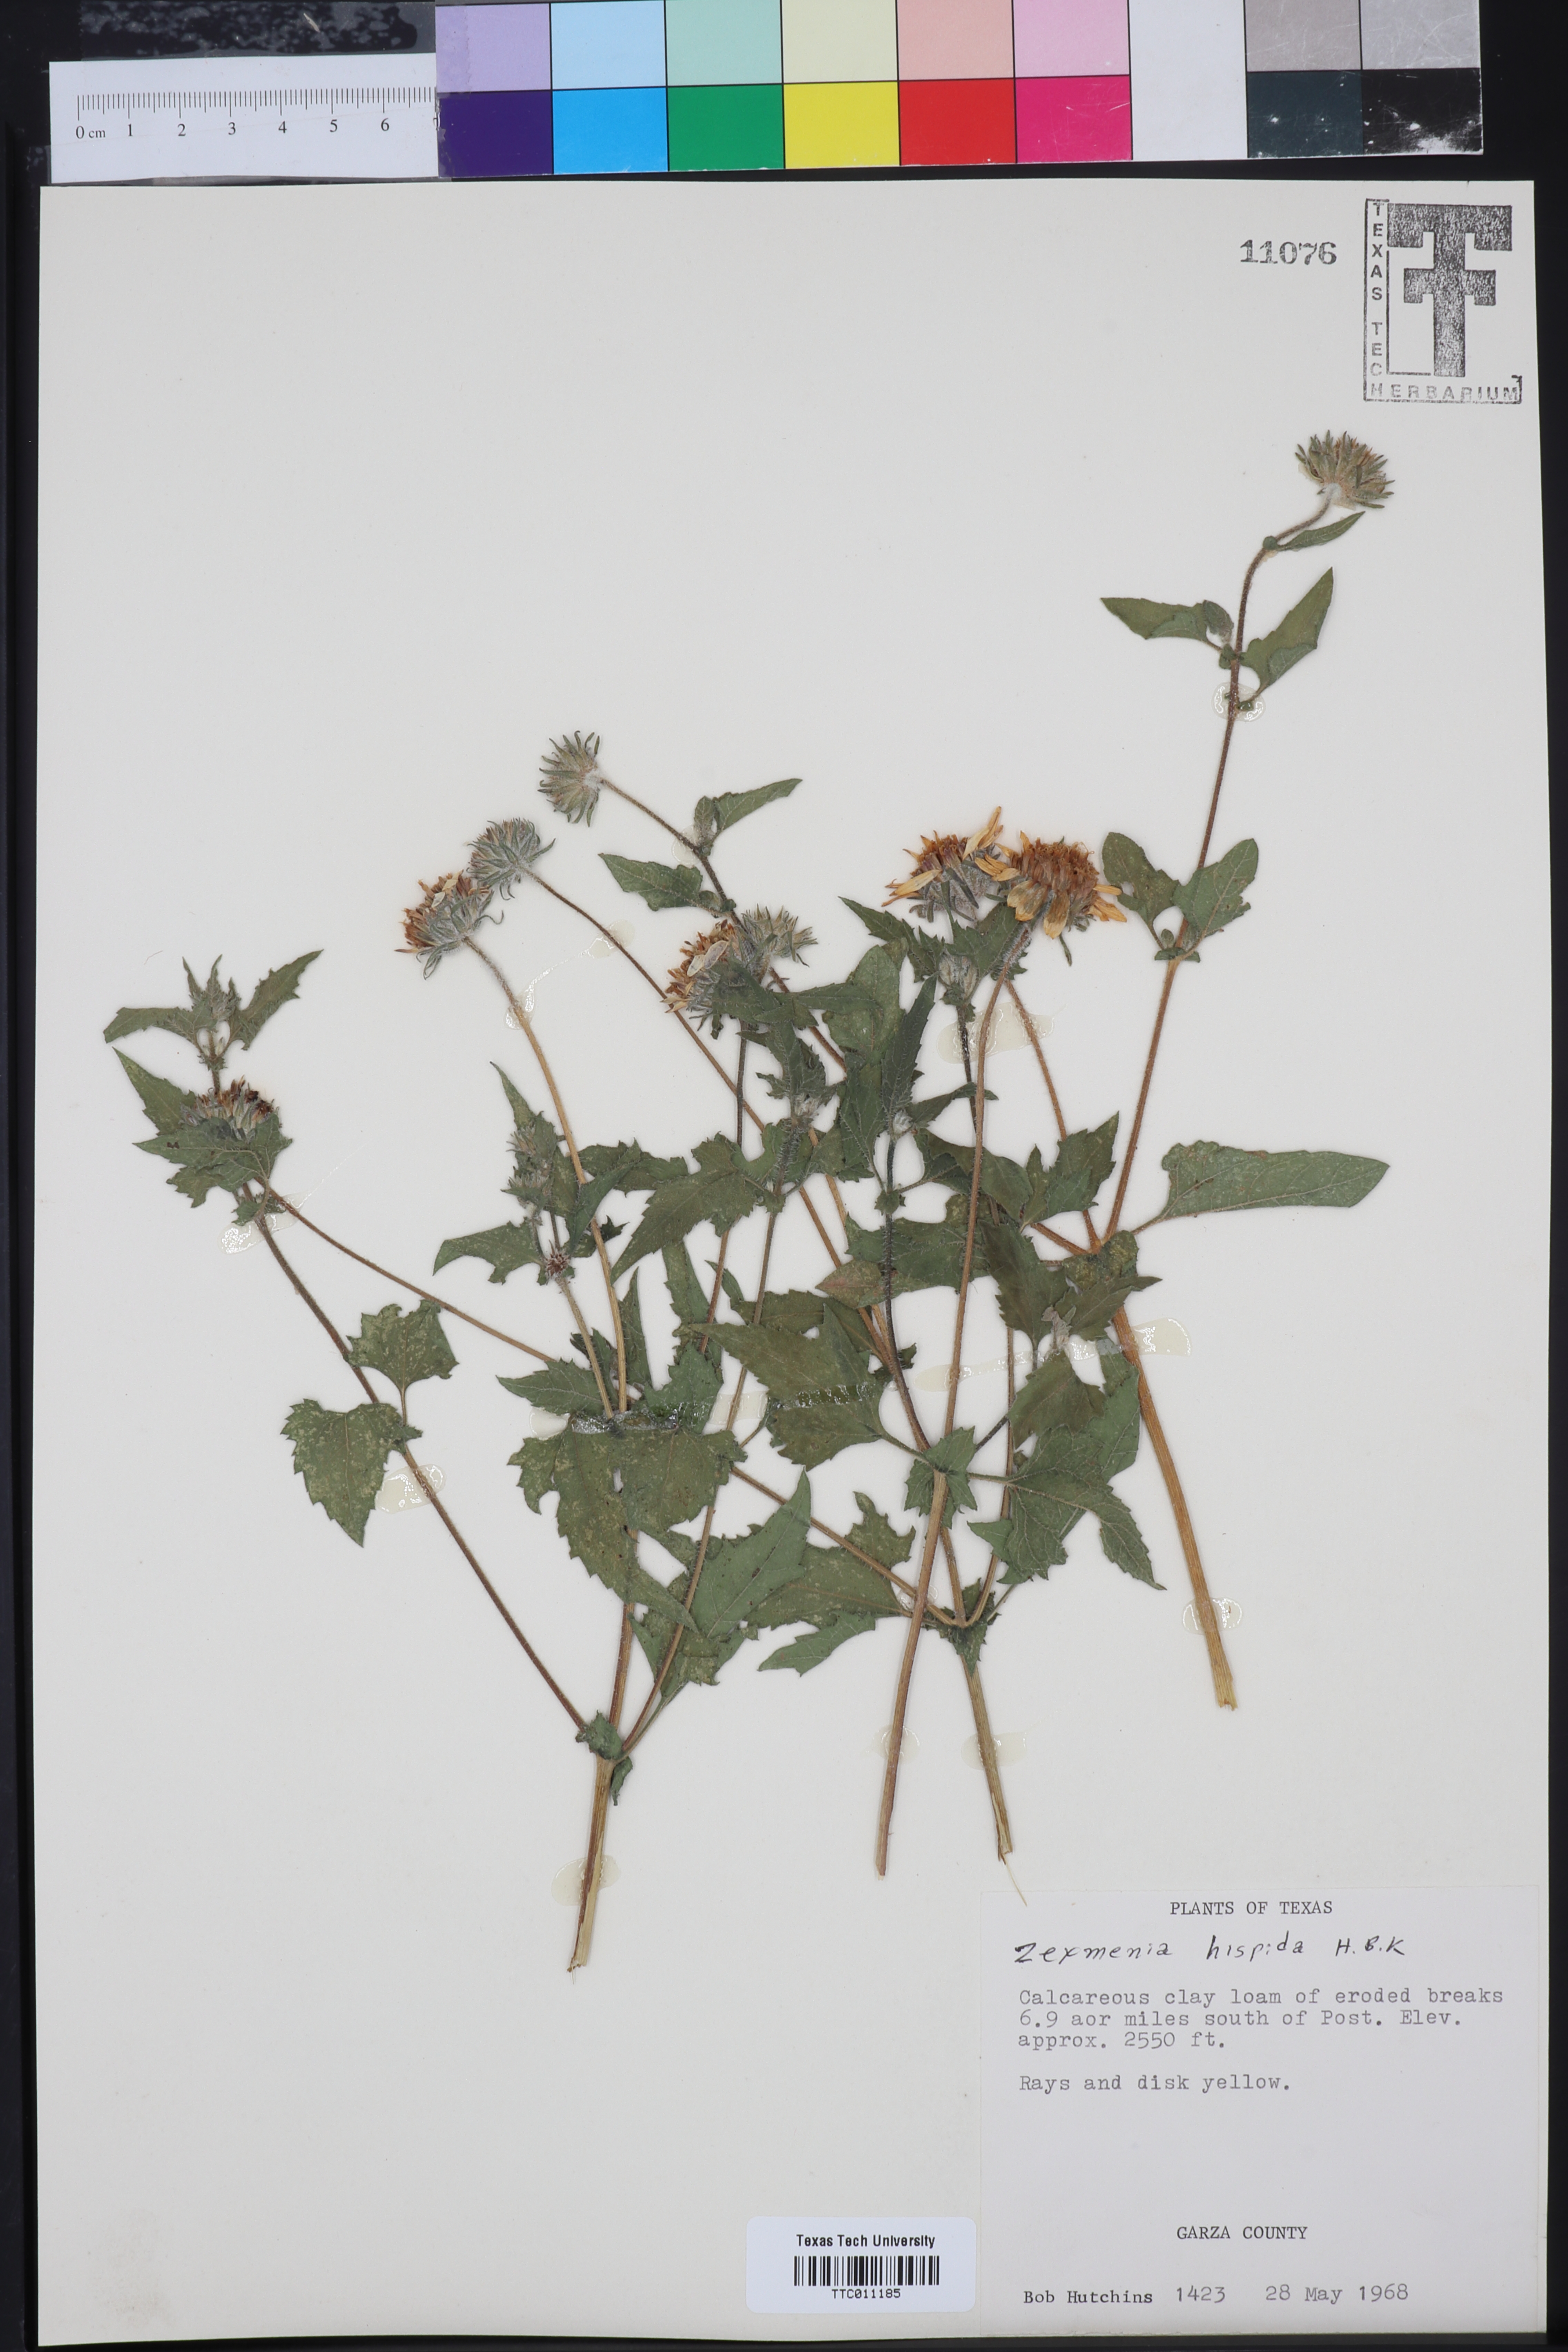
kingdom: Plantae
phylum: Tracheophyta
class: Magnoliopsida
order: Asterales
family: Asteraceae
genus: Wedelia
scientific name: Wedelia acapulcensis
